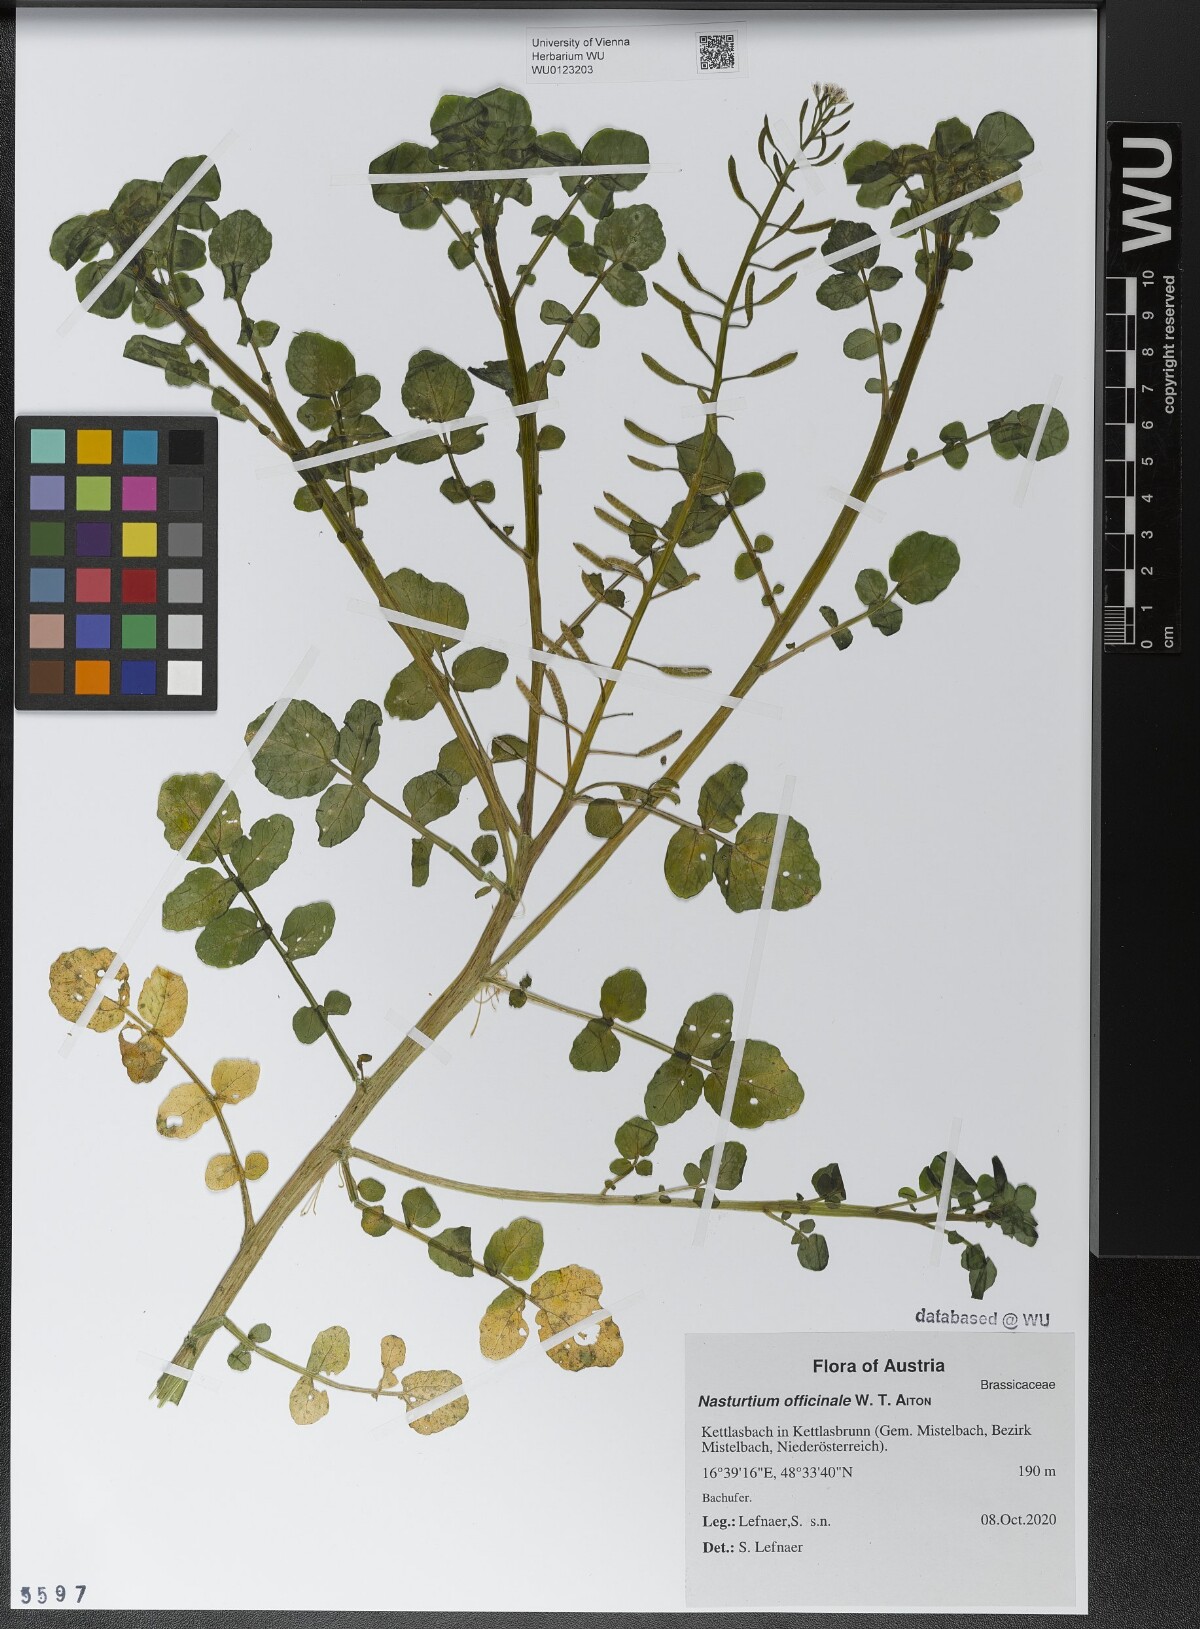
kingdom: Plantae
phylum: Tracheophyta
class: Magnoliopsida
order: Brassicales
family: Brassicaceae
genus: Nasturtium
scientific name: Nasturtium officinale
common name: Watercress
